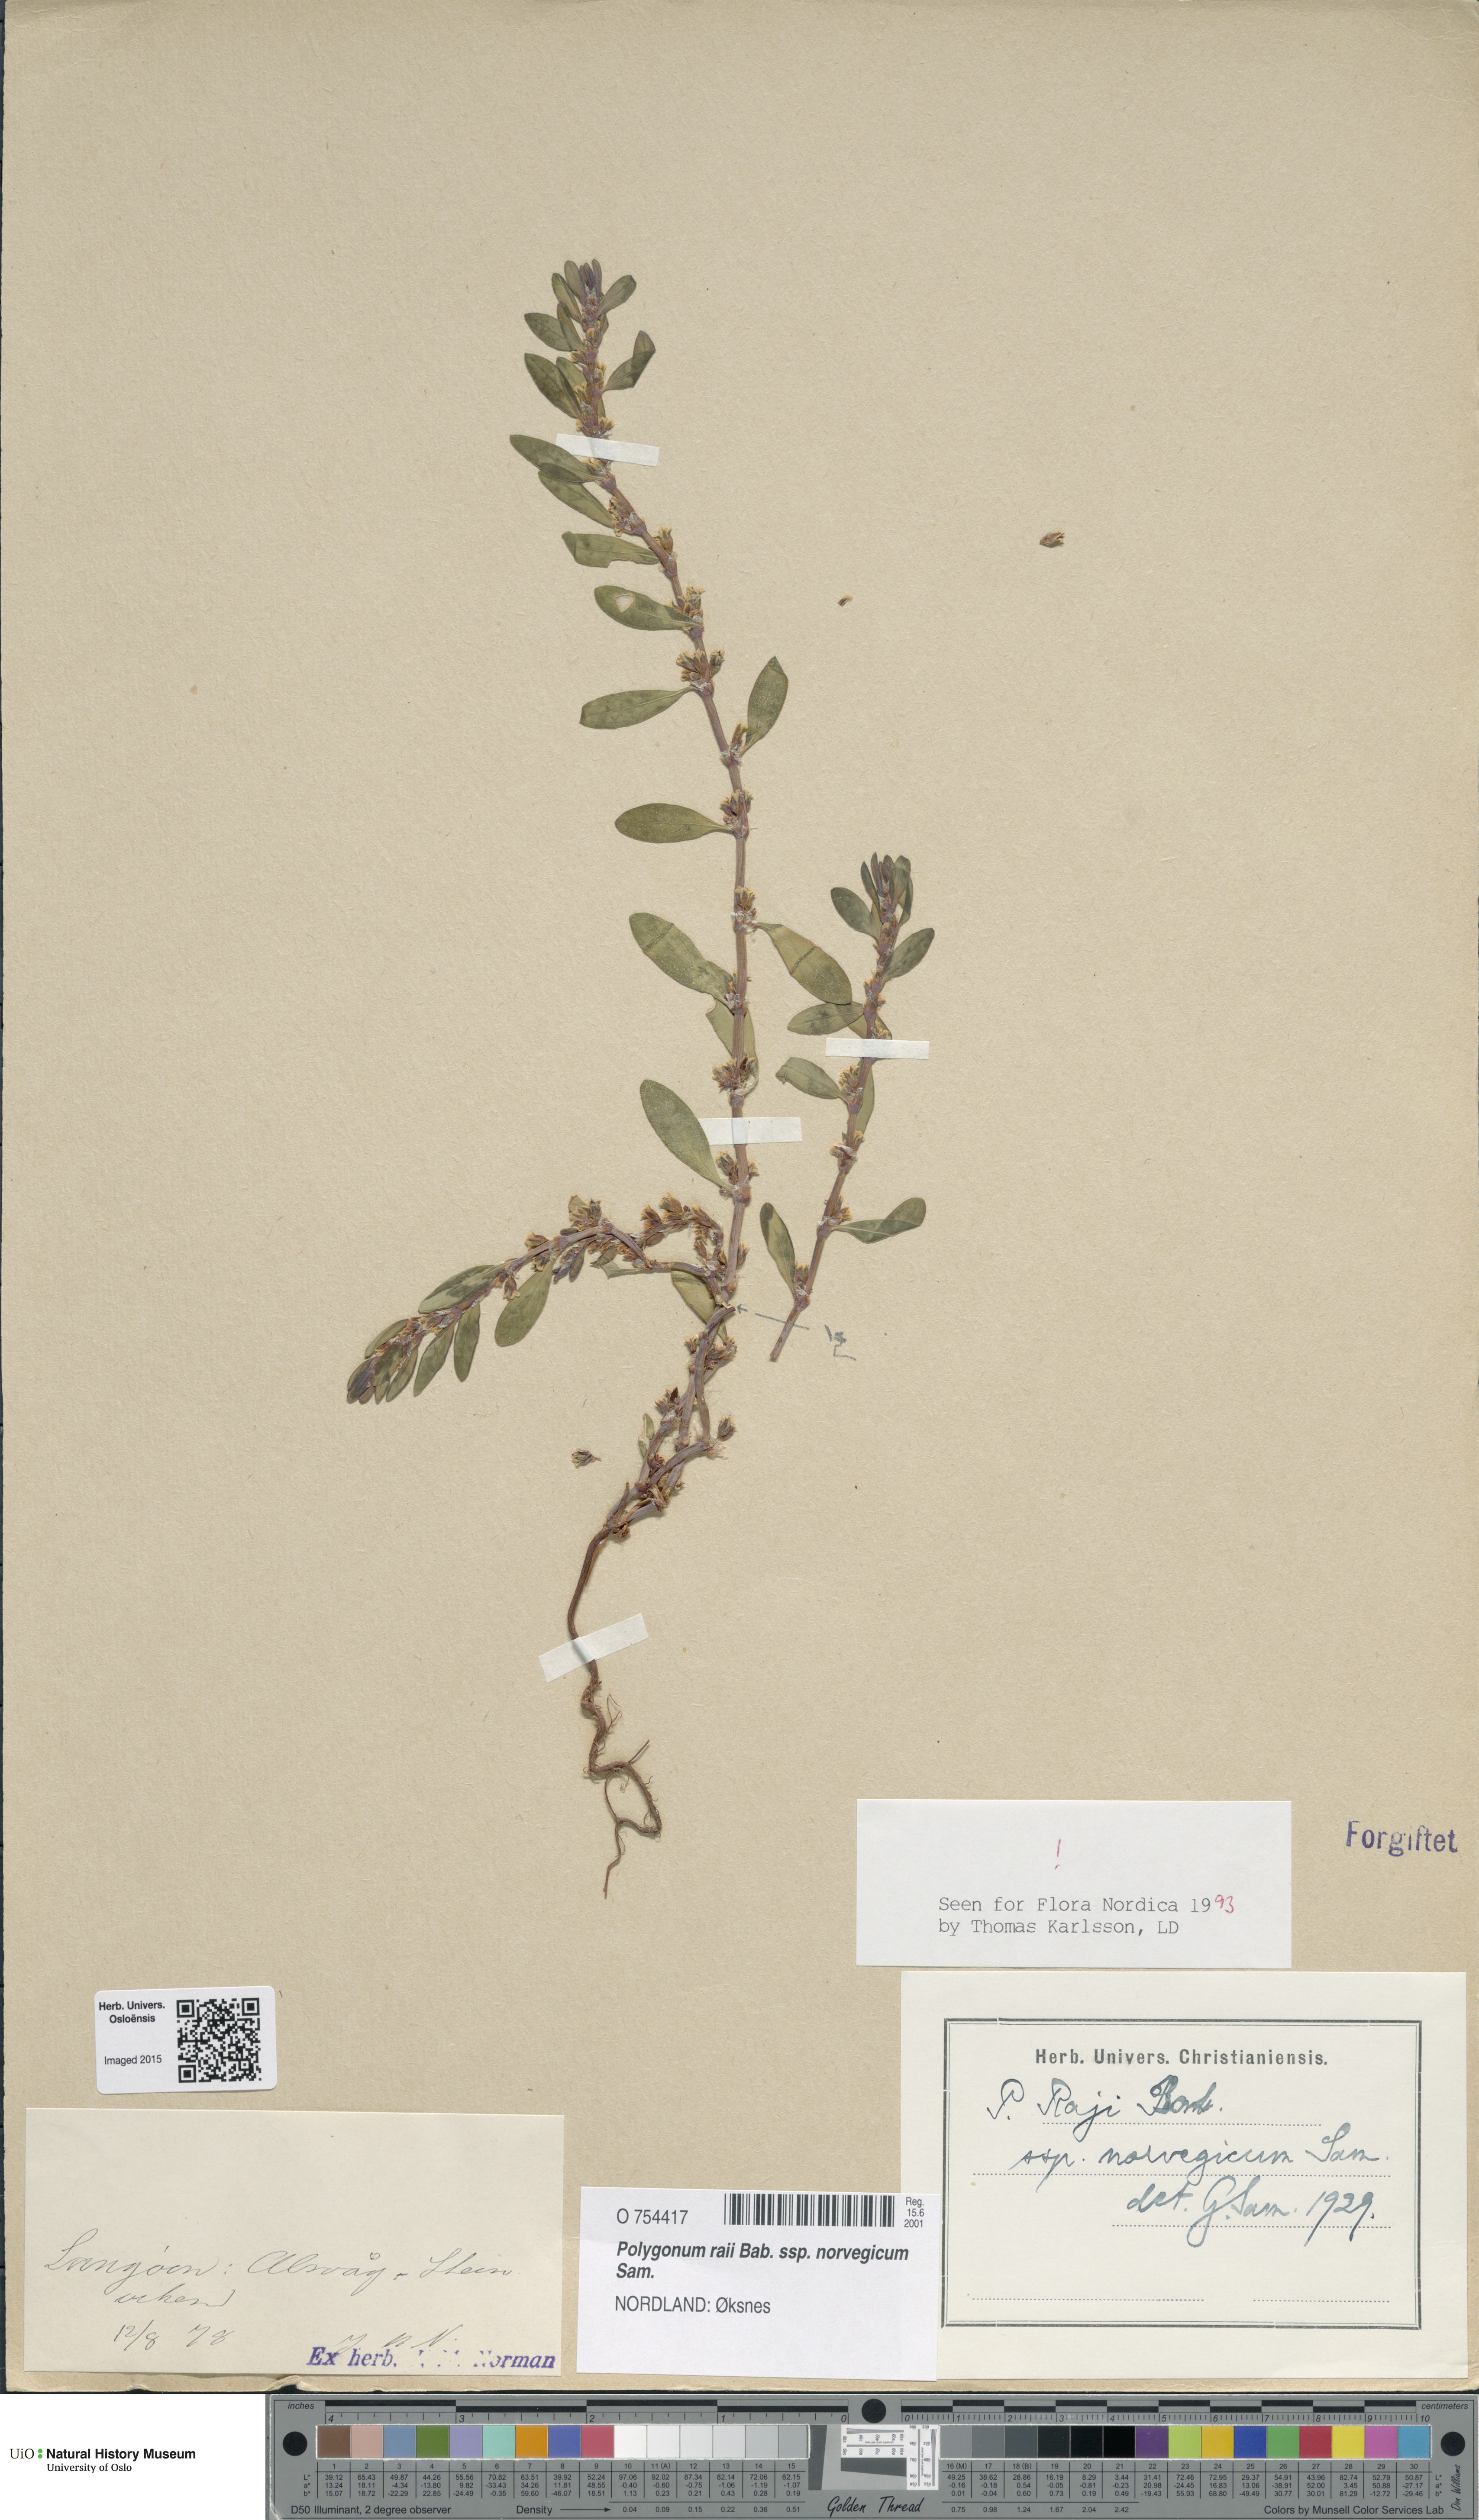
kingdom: Plantae
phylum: Tracheophyta
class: Magnoliopsida
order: Caryophyllales
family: Polygonaceae
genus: Polygonum
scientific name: Polygonum norvegicum
